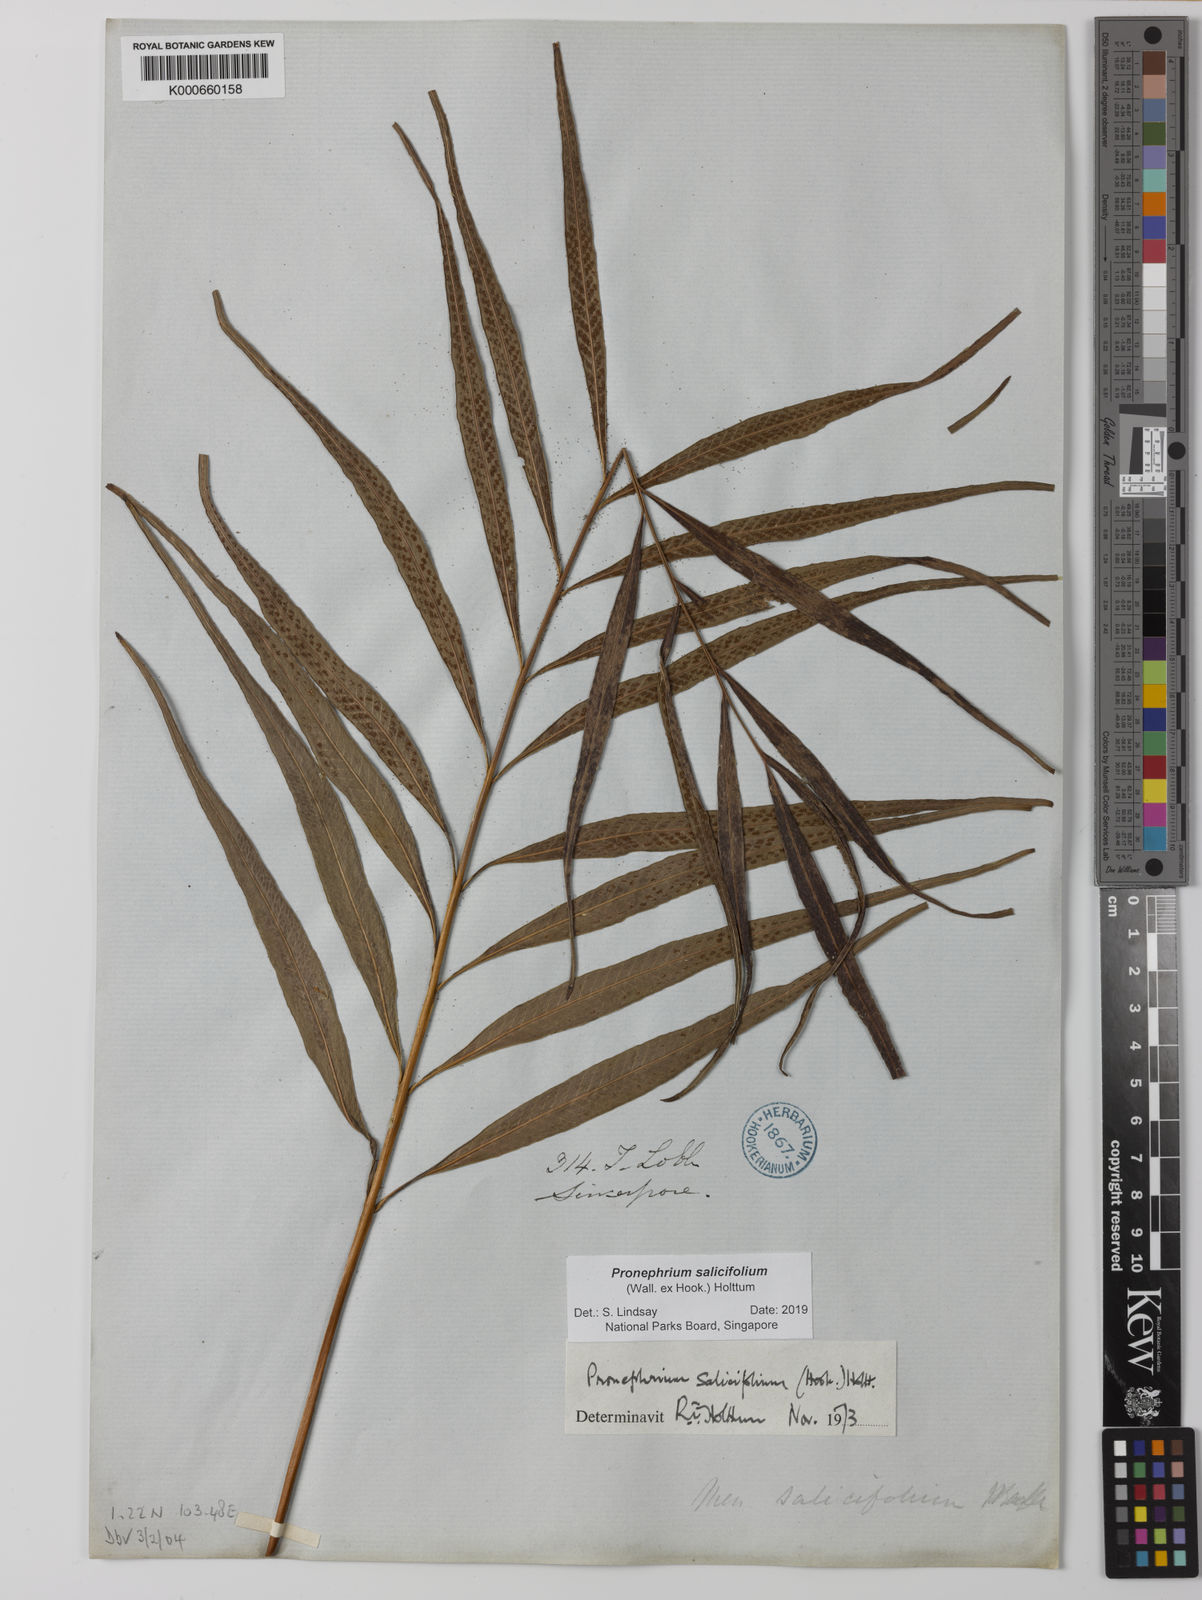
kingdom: Plantae
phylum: Tracheophyta
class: Polypodiopsida
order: Polypodiales
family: Thelypteridaceae
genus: Grypothrix
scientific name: Grypothrix salicifolia
